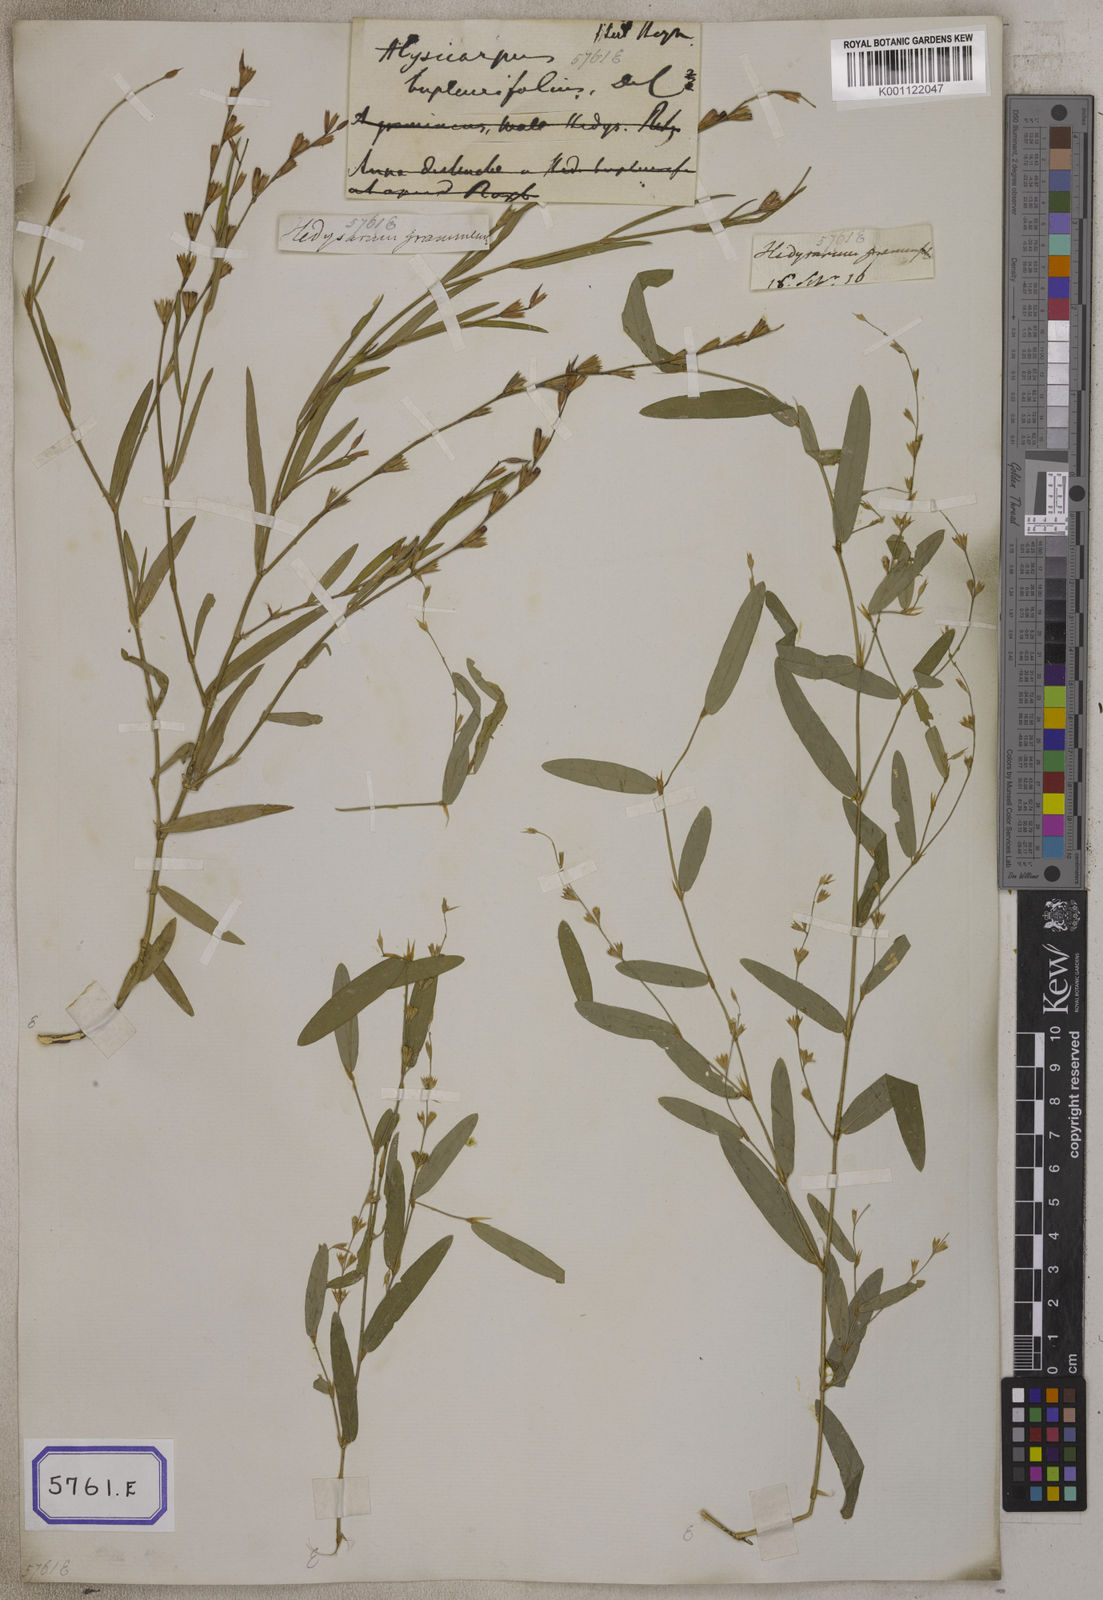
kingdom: Plantae
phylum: Tracheophyta
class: Magnoliopsida
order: Fabales
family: Fabaceae
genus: Alysicarpus
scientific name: Alysicarpus bupleurifolius
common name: Sweet alys
